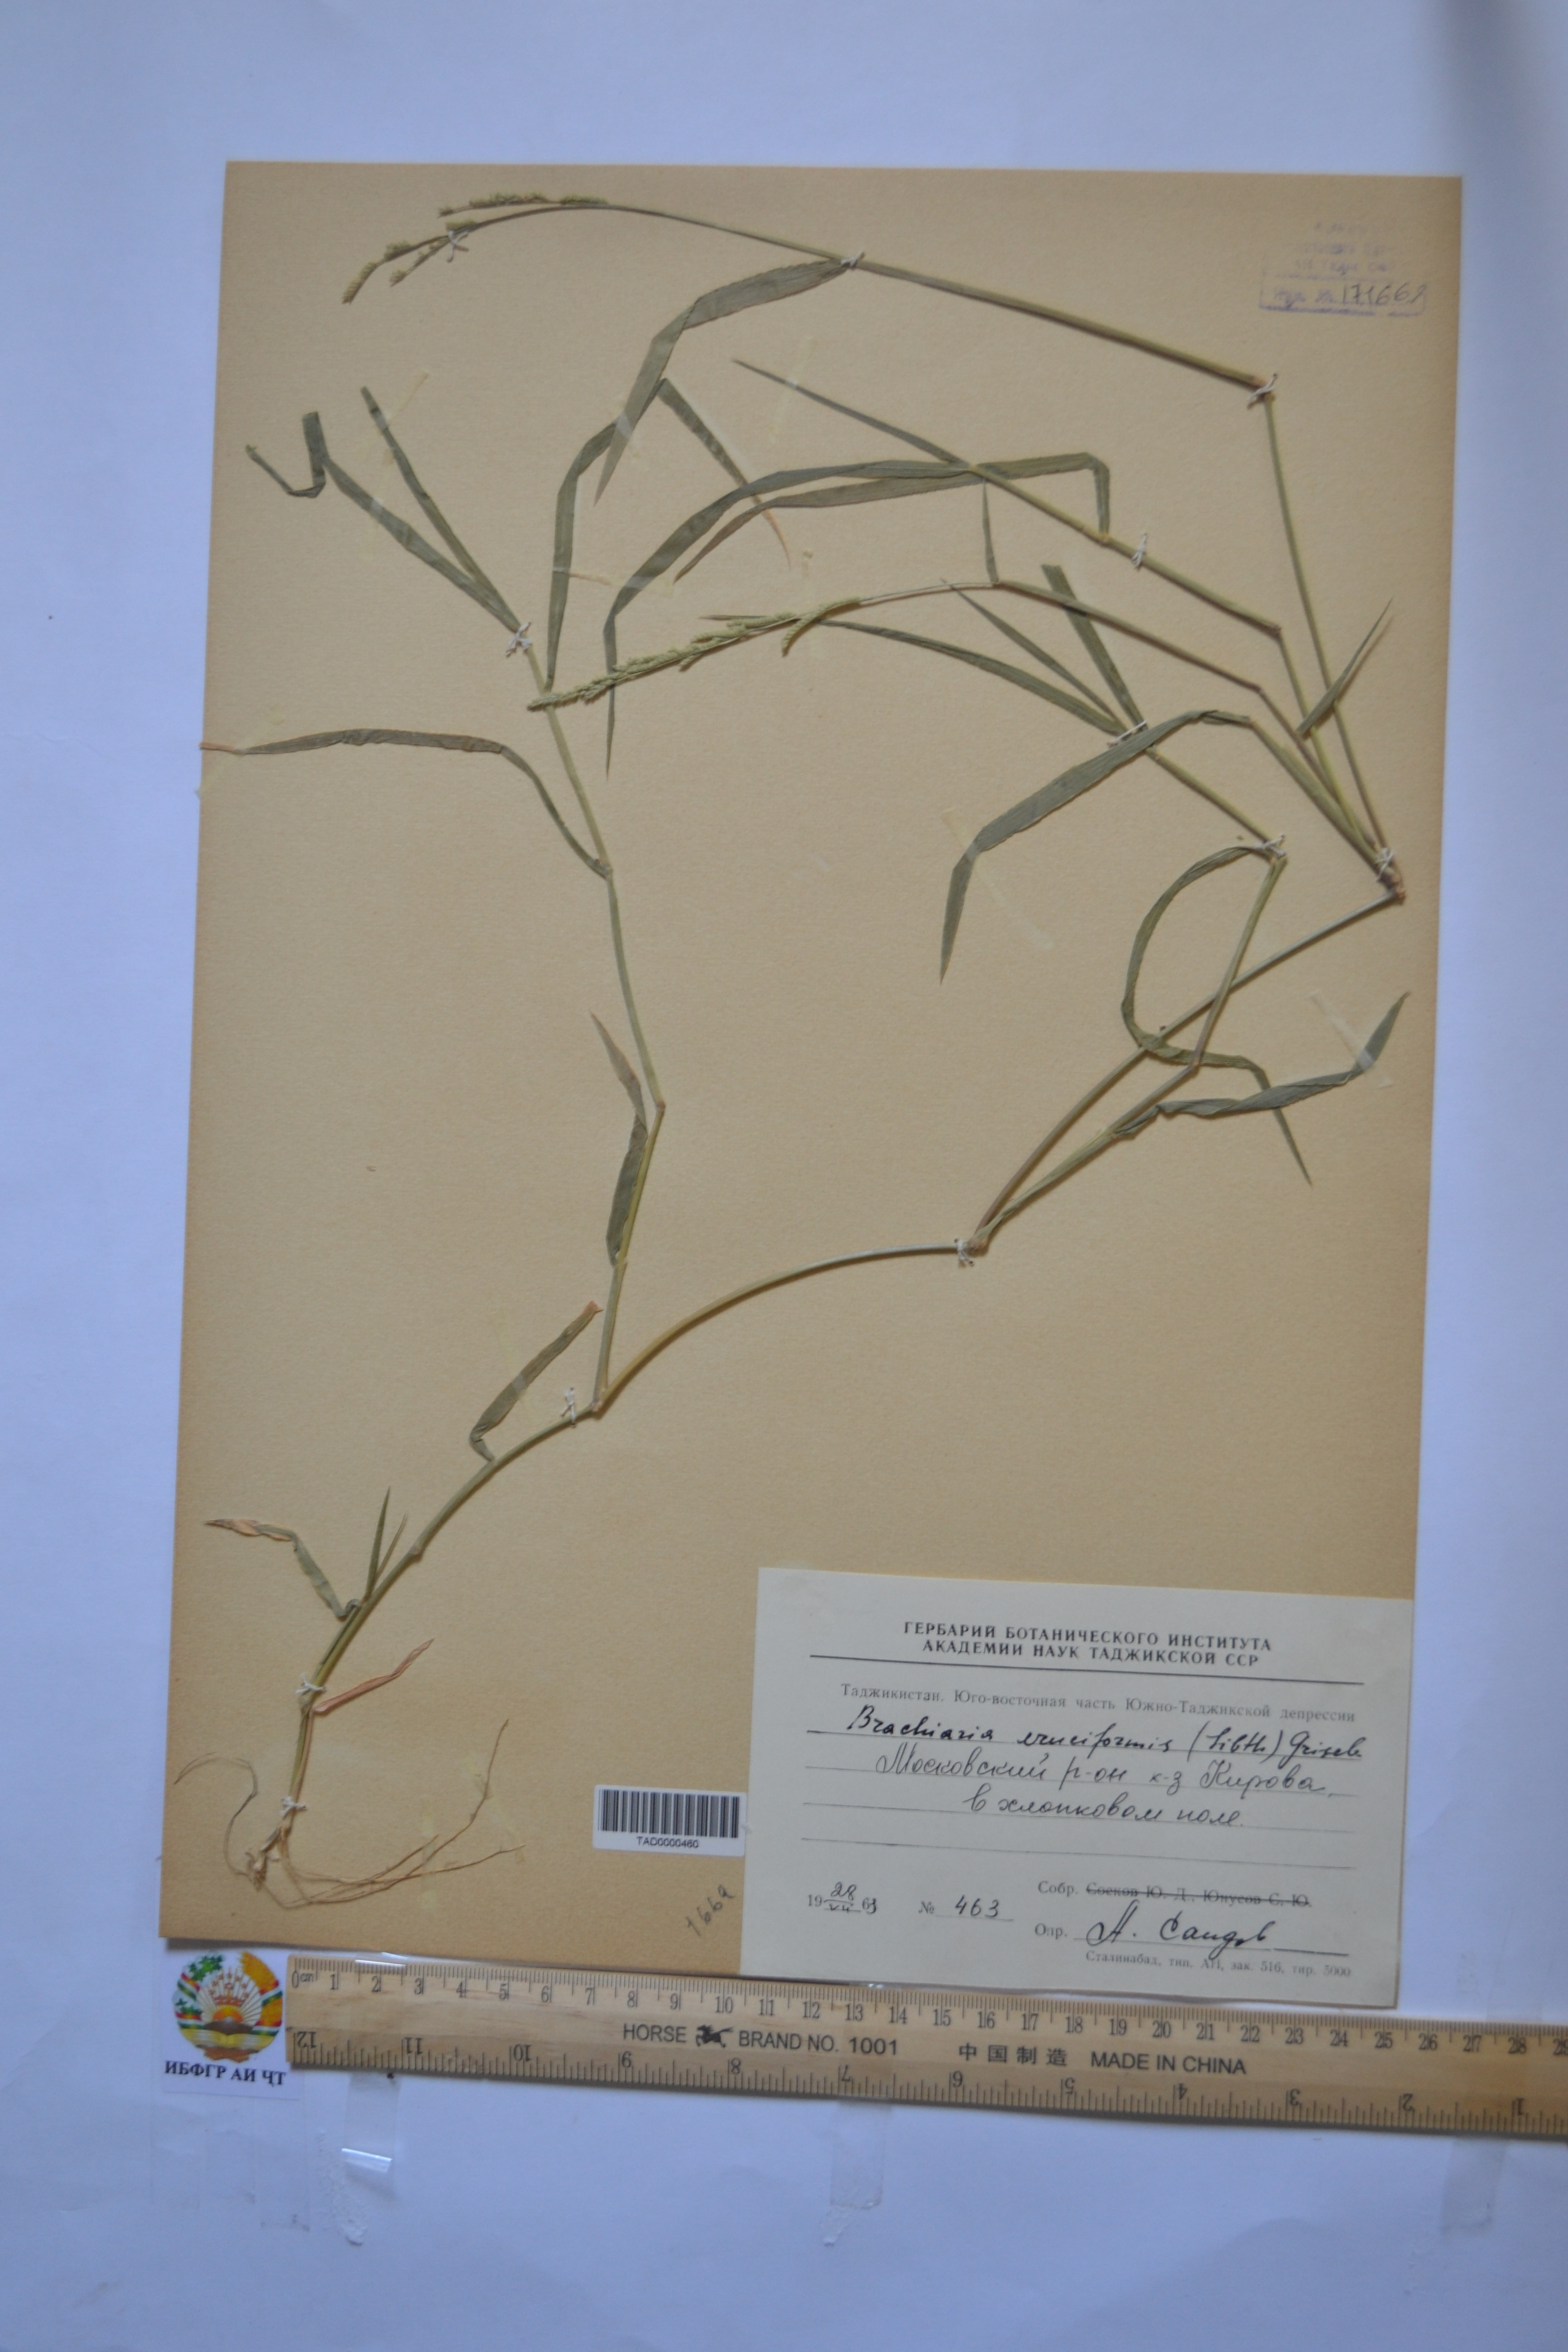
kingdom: Plantae
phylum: Tracheophyta
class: Liliopsida
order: Poales
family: Poaceae
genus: Moorochloa
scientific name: Moorochloa eruciformis
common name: Sweet signalgrass
